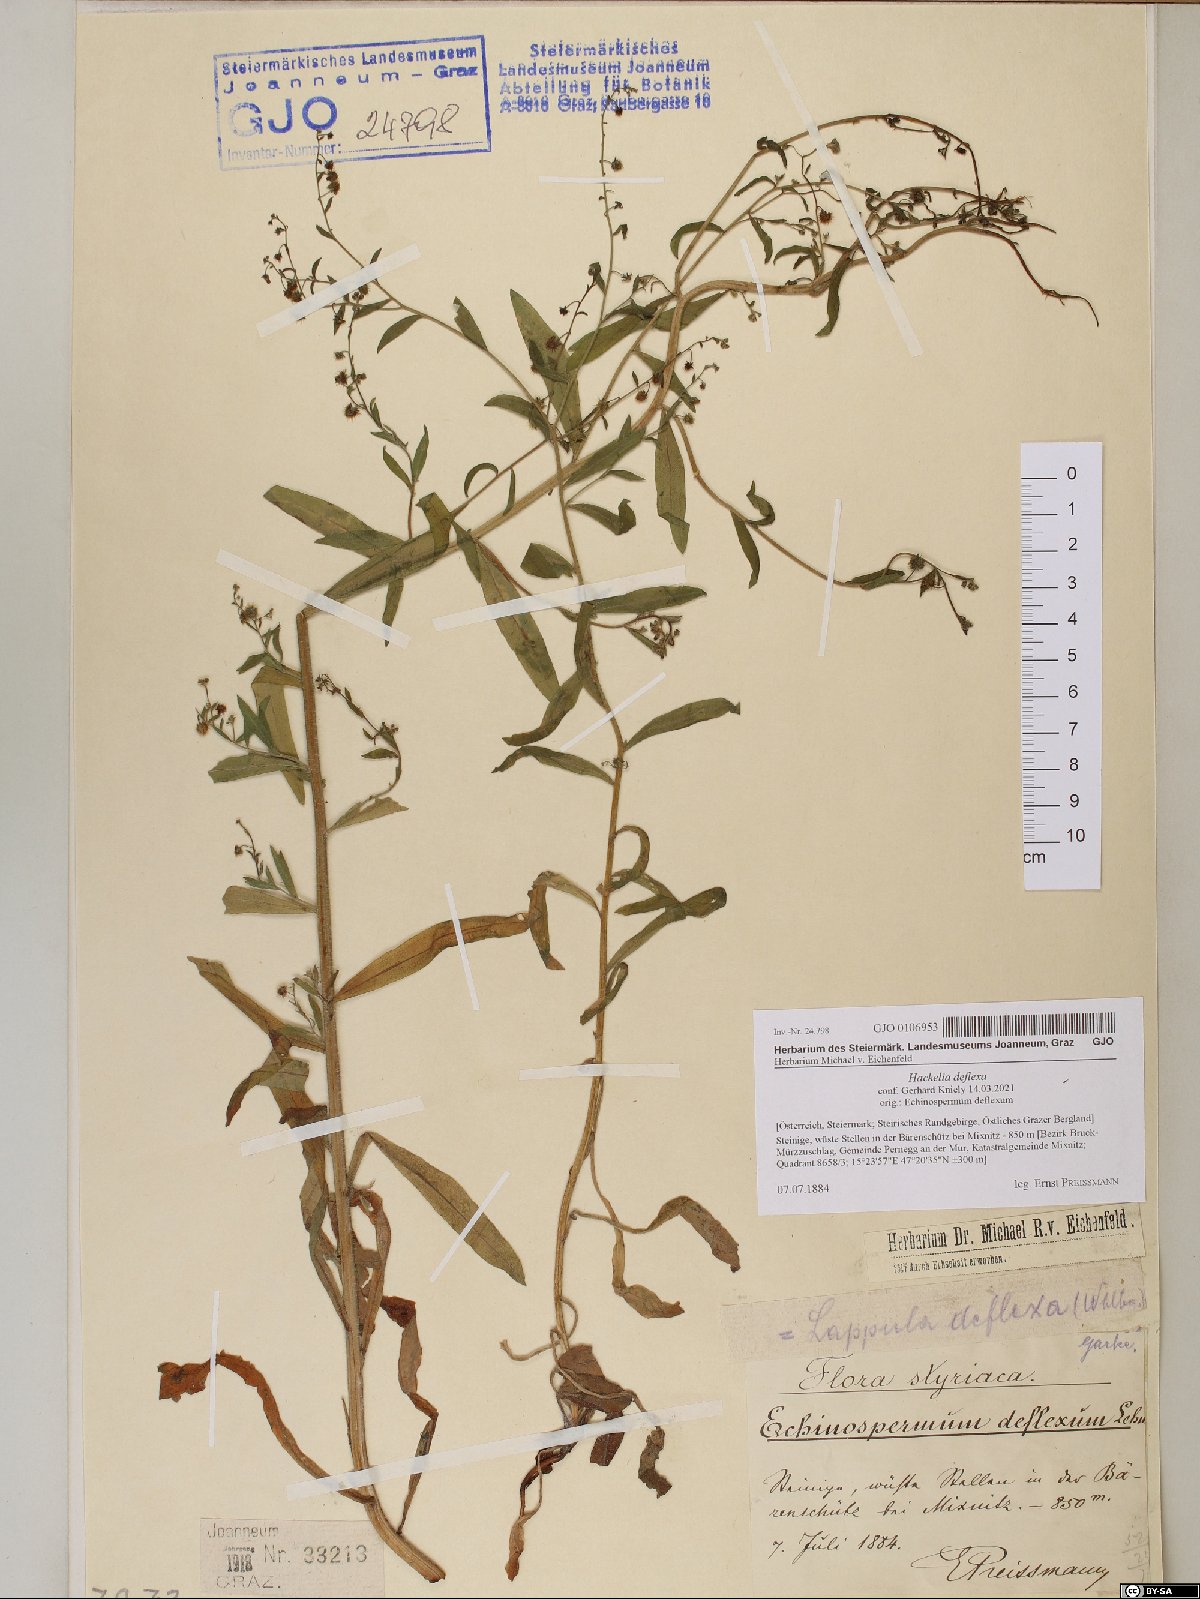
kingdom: Plantae
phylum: Tracheophyta
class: Magnoliopsida
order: Boraginales
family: Boraginaceae
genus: Hackelia
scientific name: Hackelia deflexa
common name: Nodding stickseed
